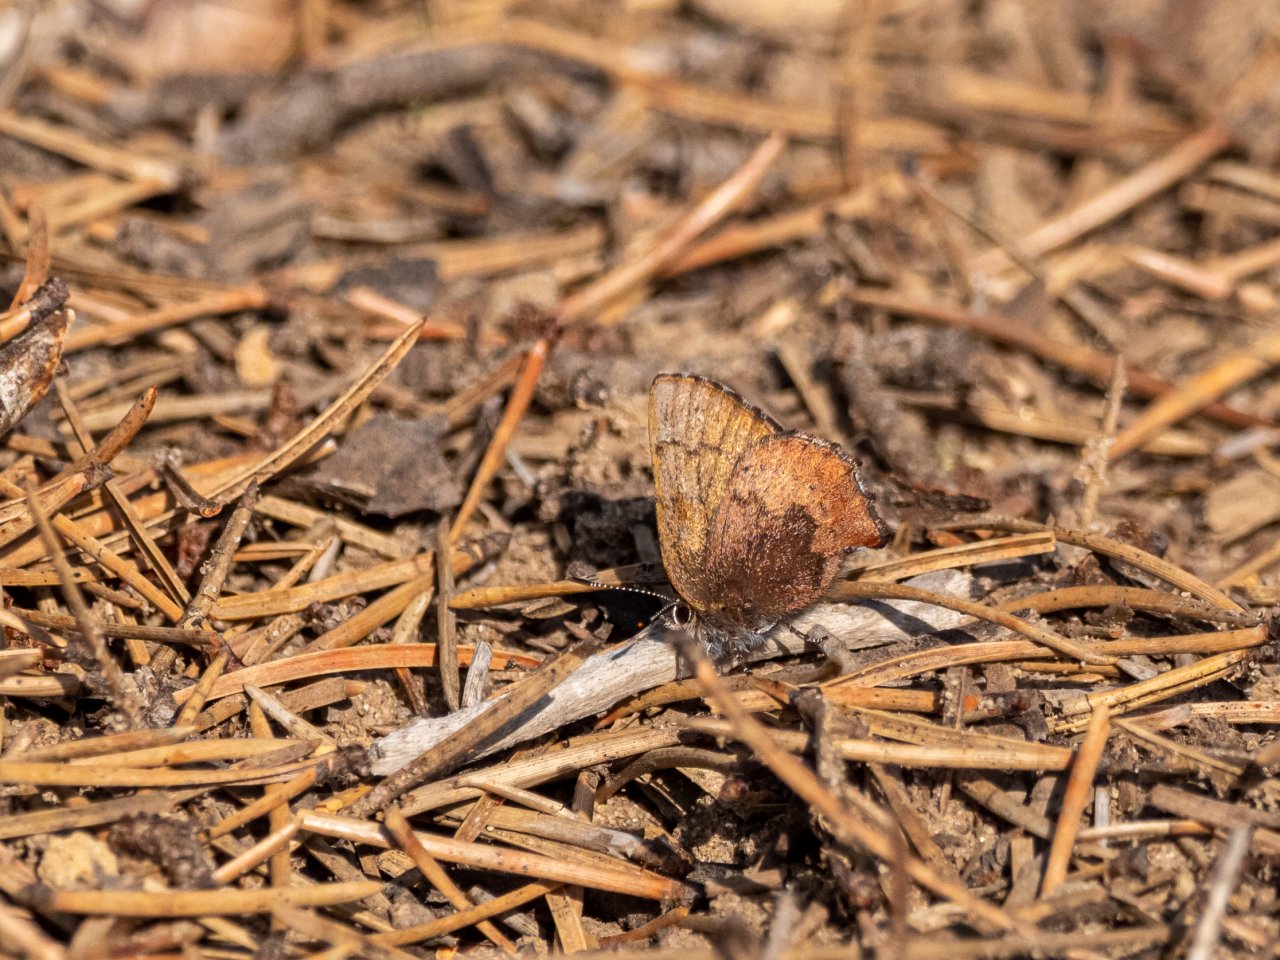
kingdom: Animalia
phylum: Arthropoda
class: Insecta
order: Lepidoptera
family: Lycaenidae
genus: Incisalia
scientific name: Incisalia irioides
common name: Brown Elfin
